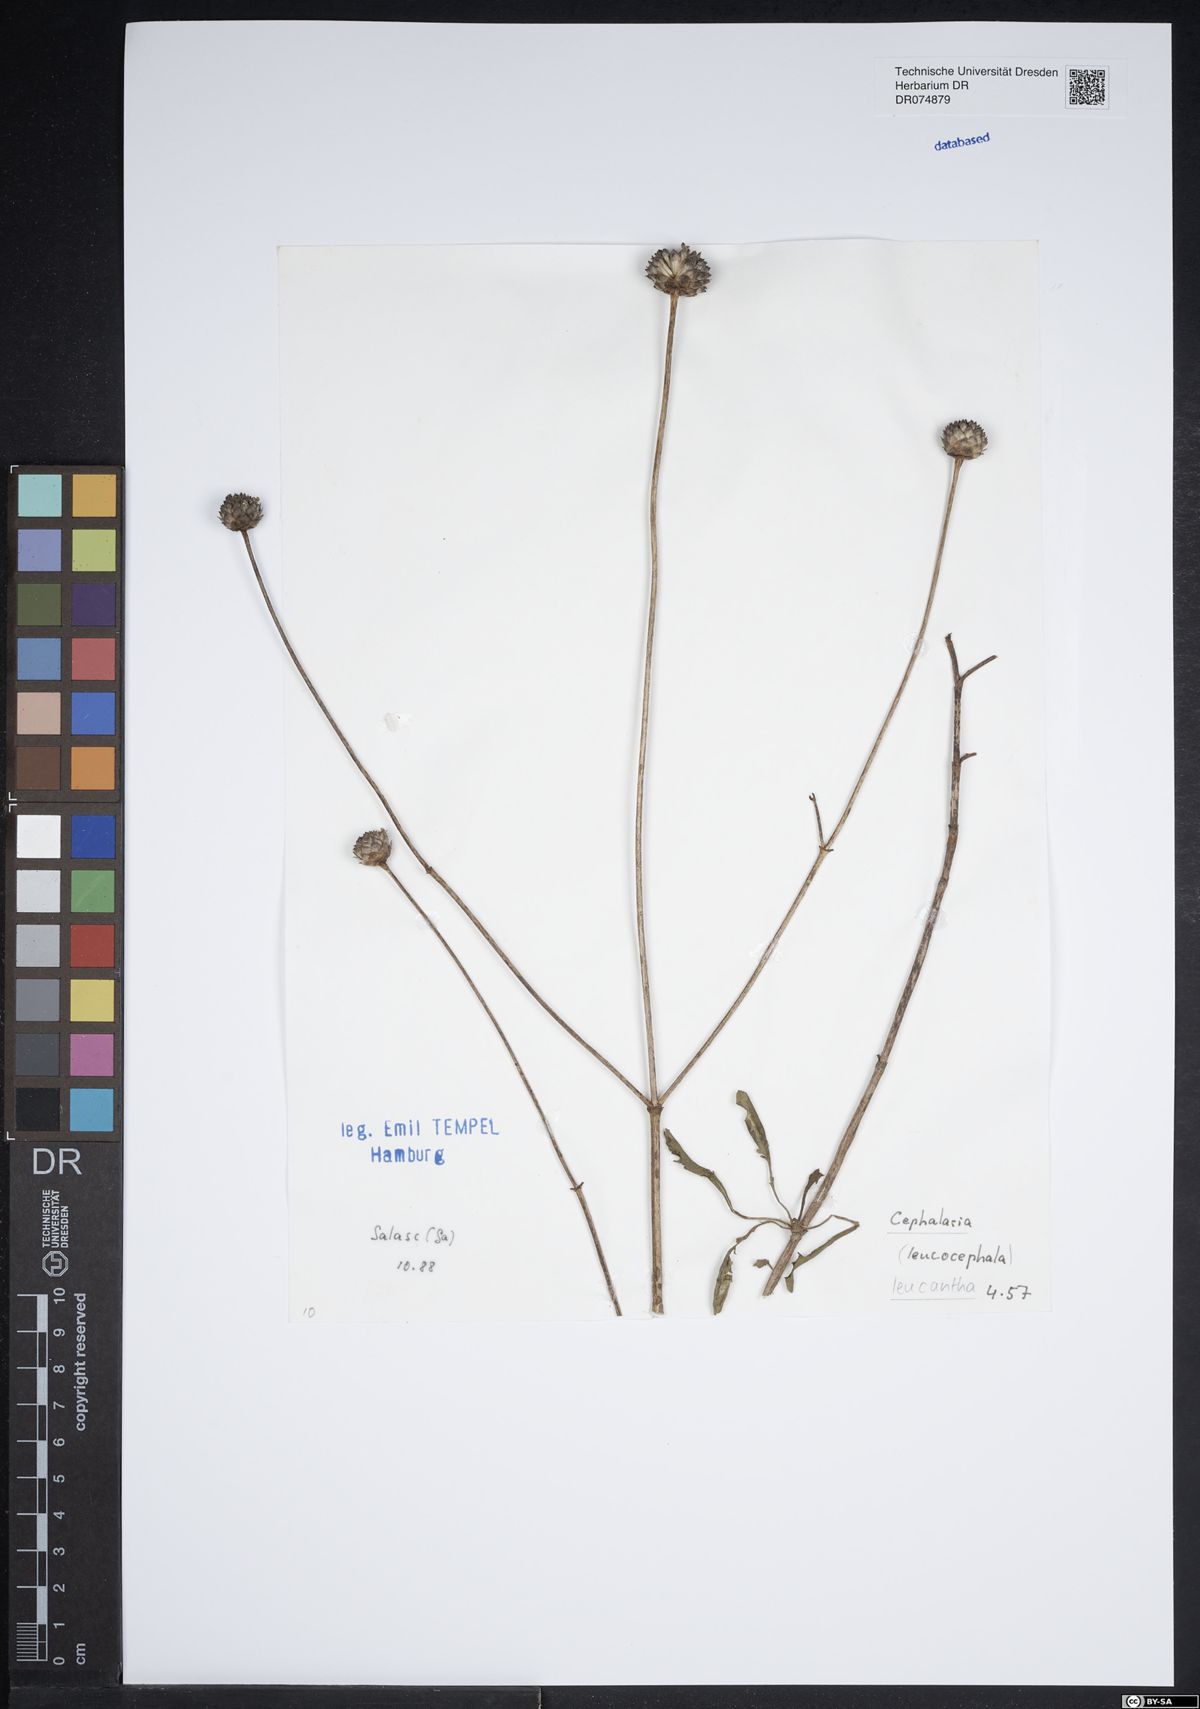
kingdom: Plantae
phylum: Tracheophyta
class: Magnoliopsida
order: Dipsacales
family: Dipsacaceae
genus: Cephalaria
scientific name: Cephalaria leucantha
